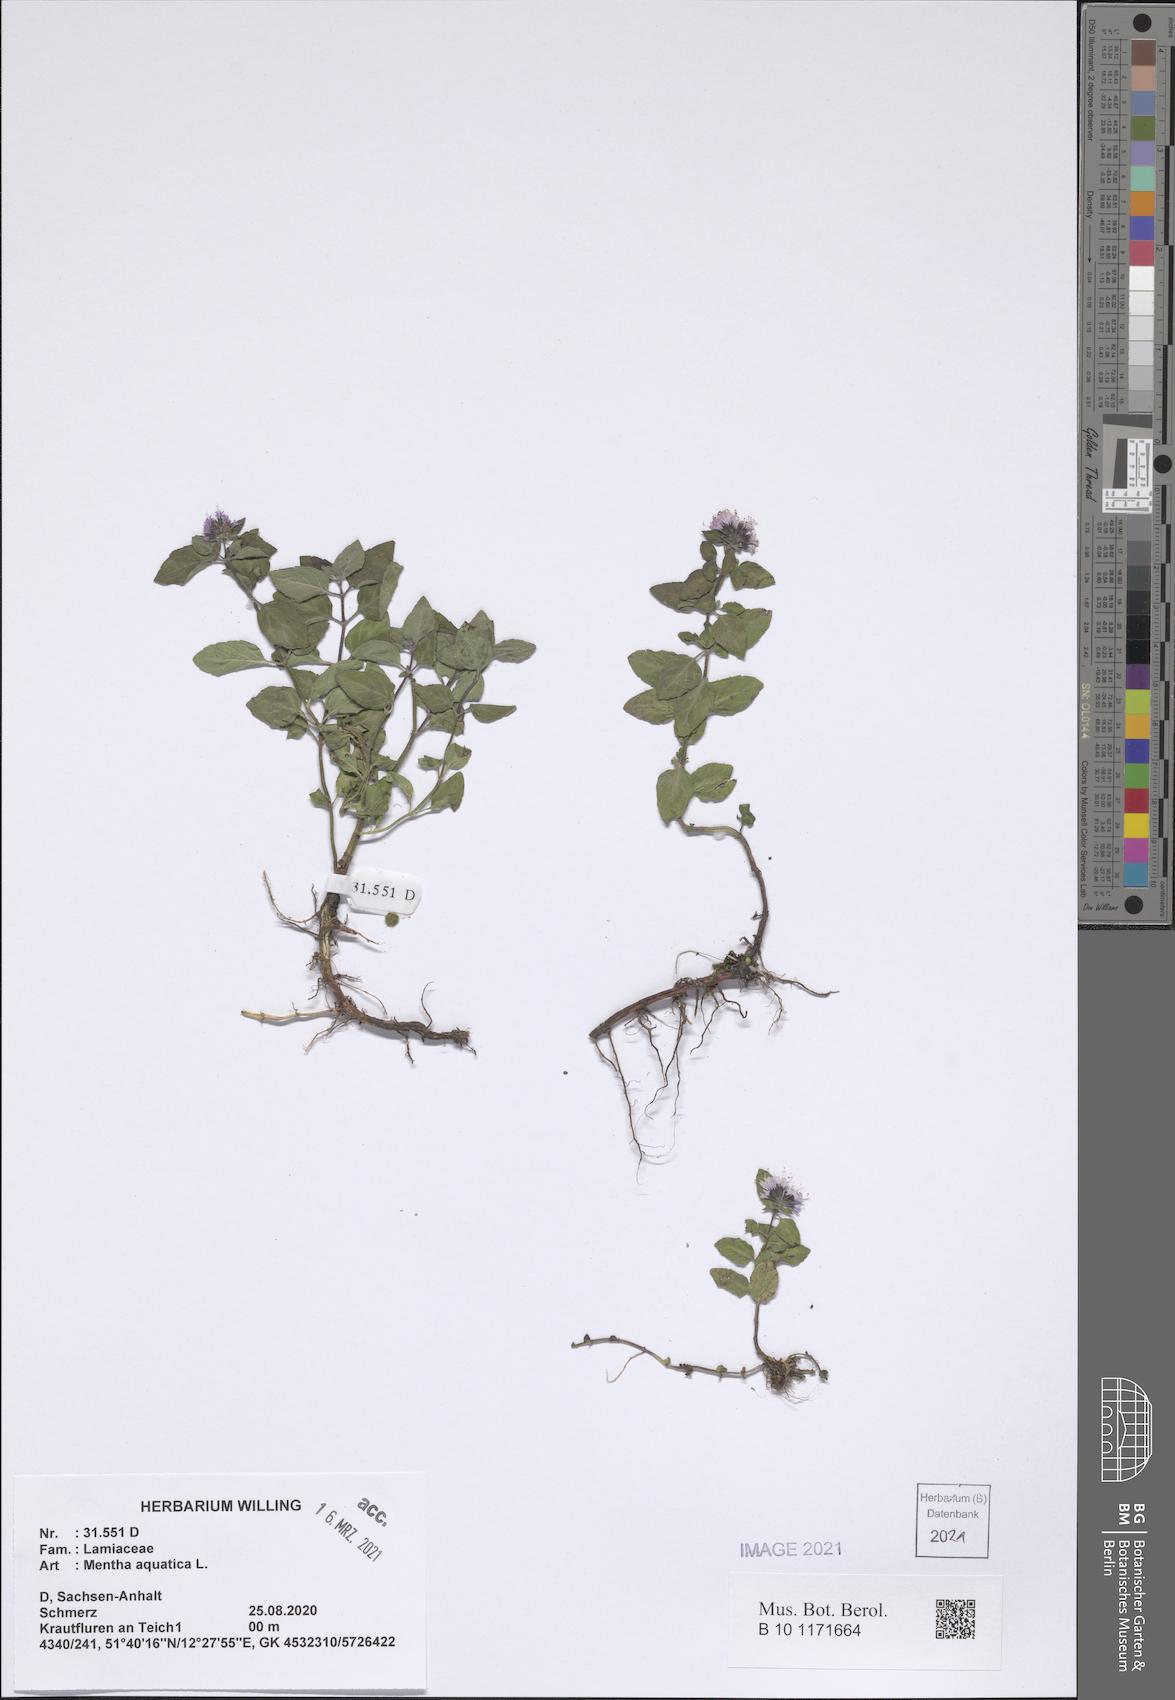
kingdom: Plantae
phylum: Tracheophyta
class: Magnoliopsida
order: Lamiales
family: Lamiaceae
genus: Mentha
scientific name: Mentha aquatica
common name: Water mint
